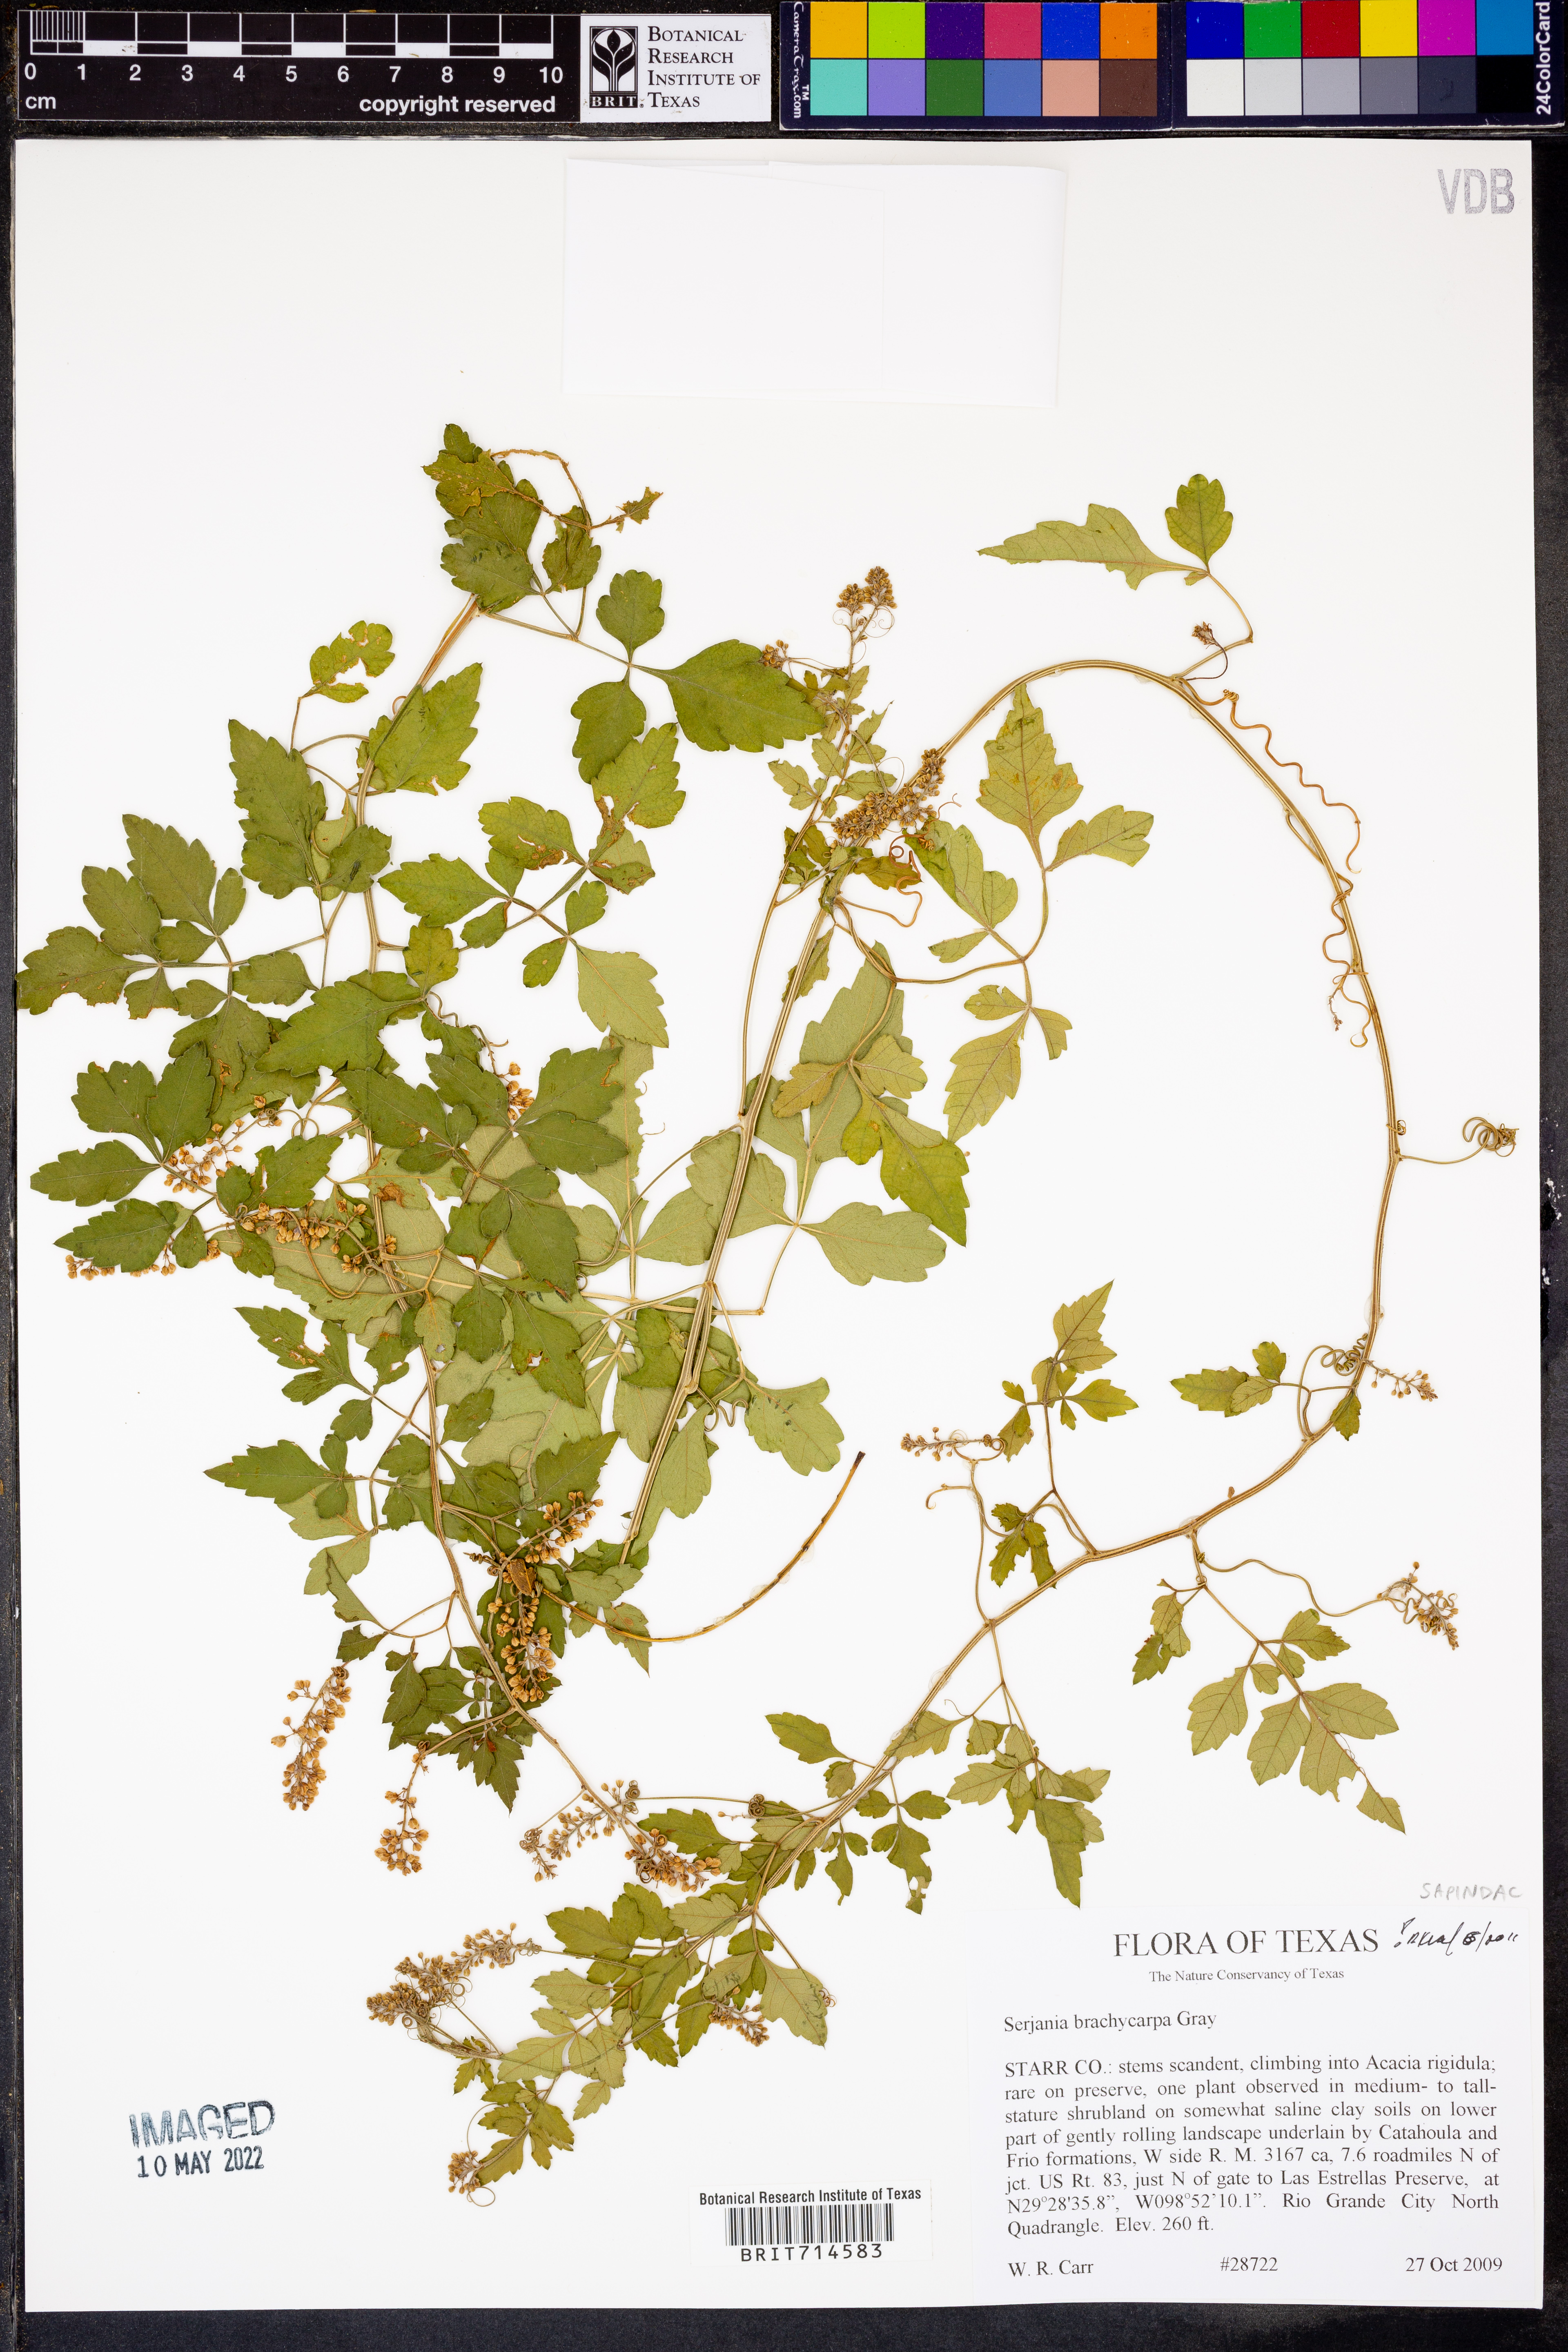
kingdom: Plantae
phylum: Tracheophyta
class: Magnoliopsida
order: Sapindales
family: Sapindaceae
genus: Serjania
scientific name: Serjania brachycarpa
